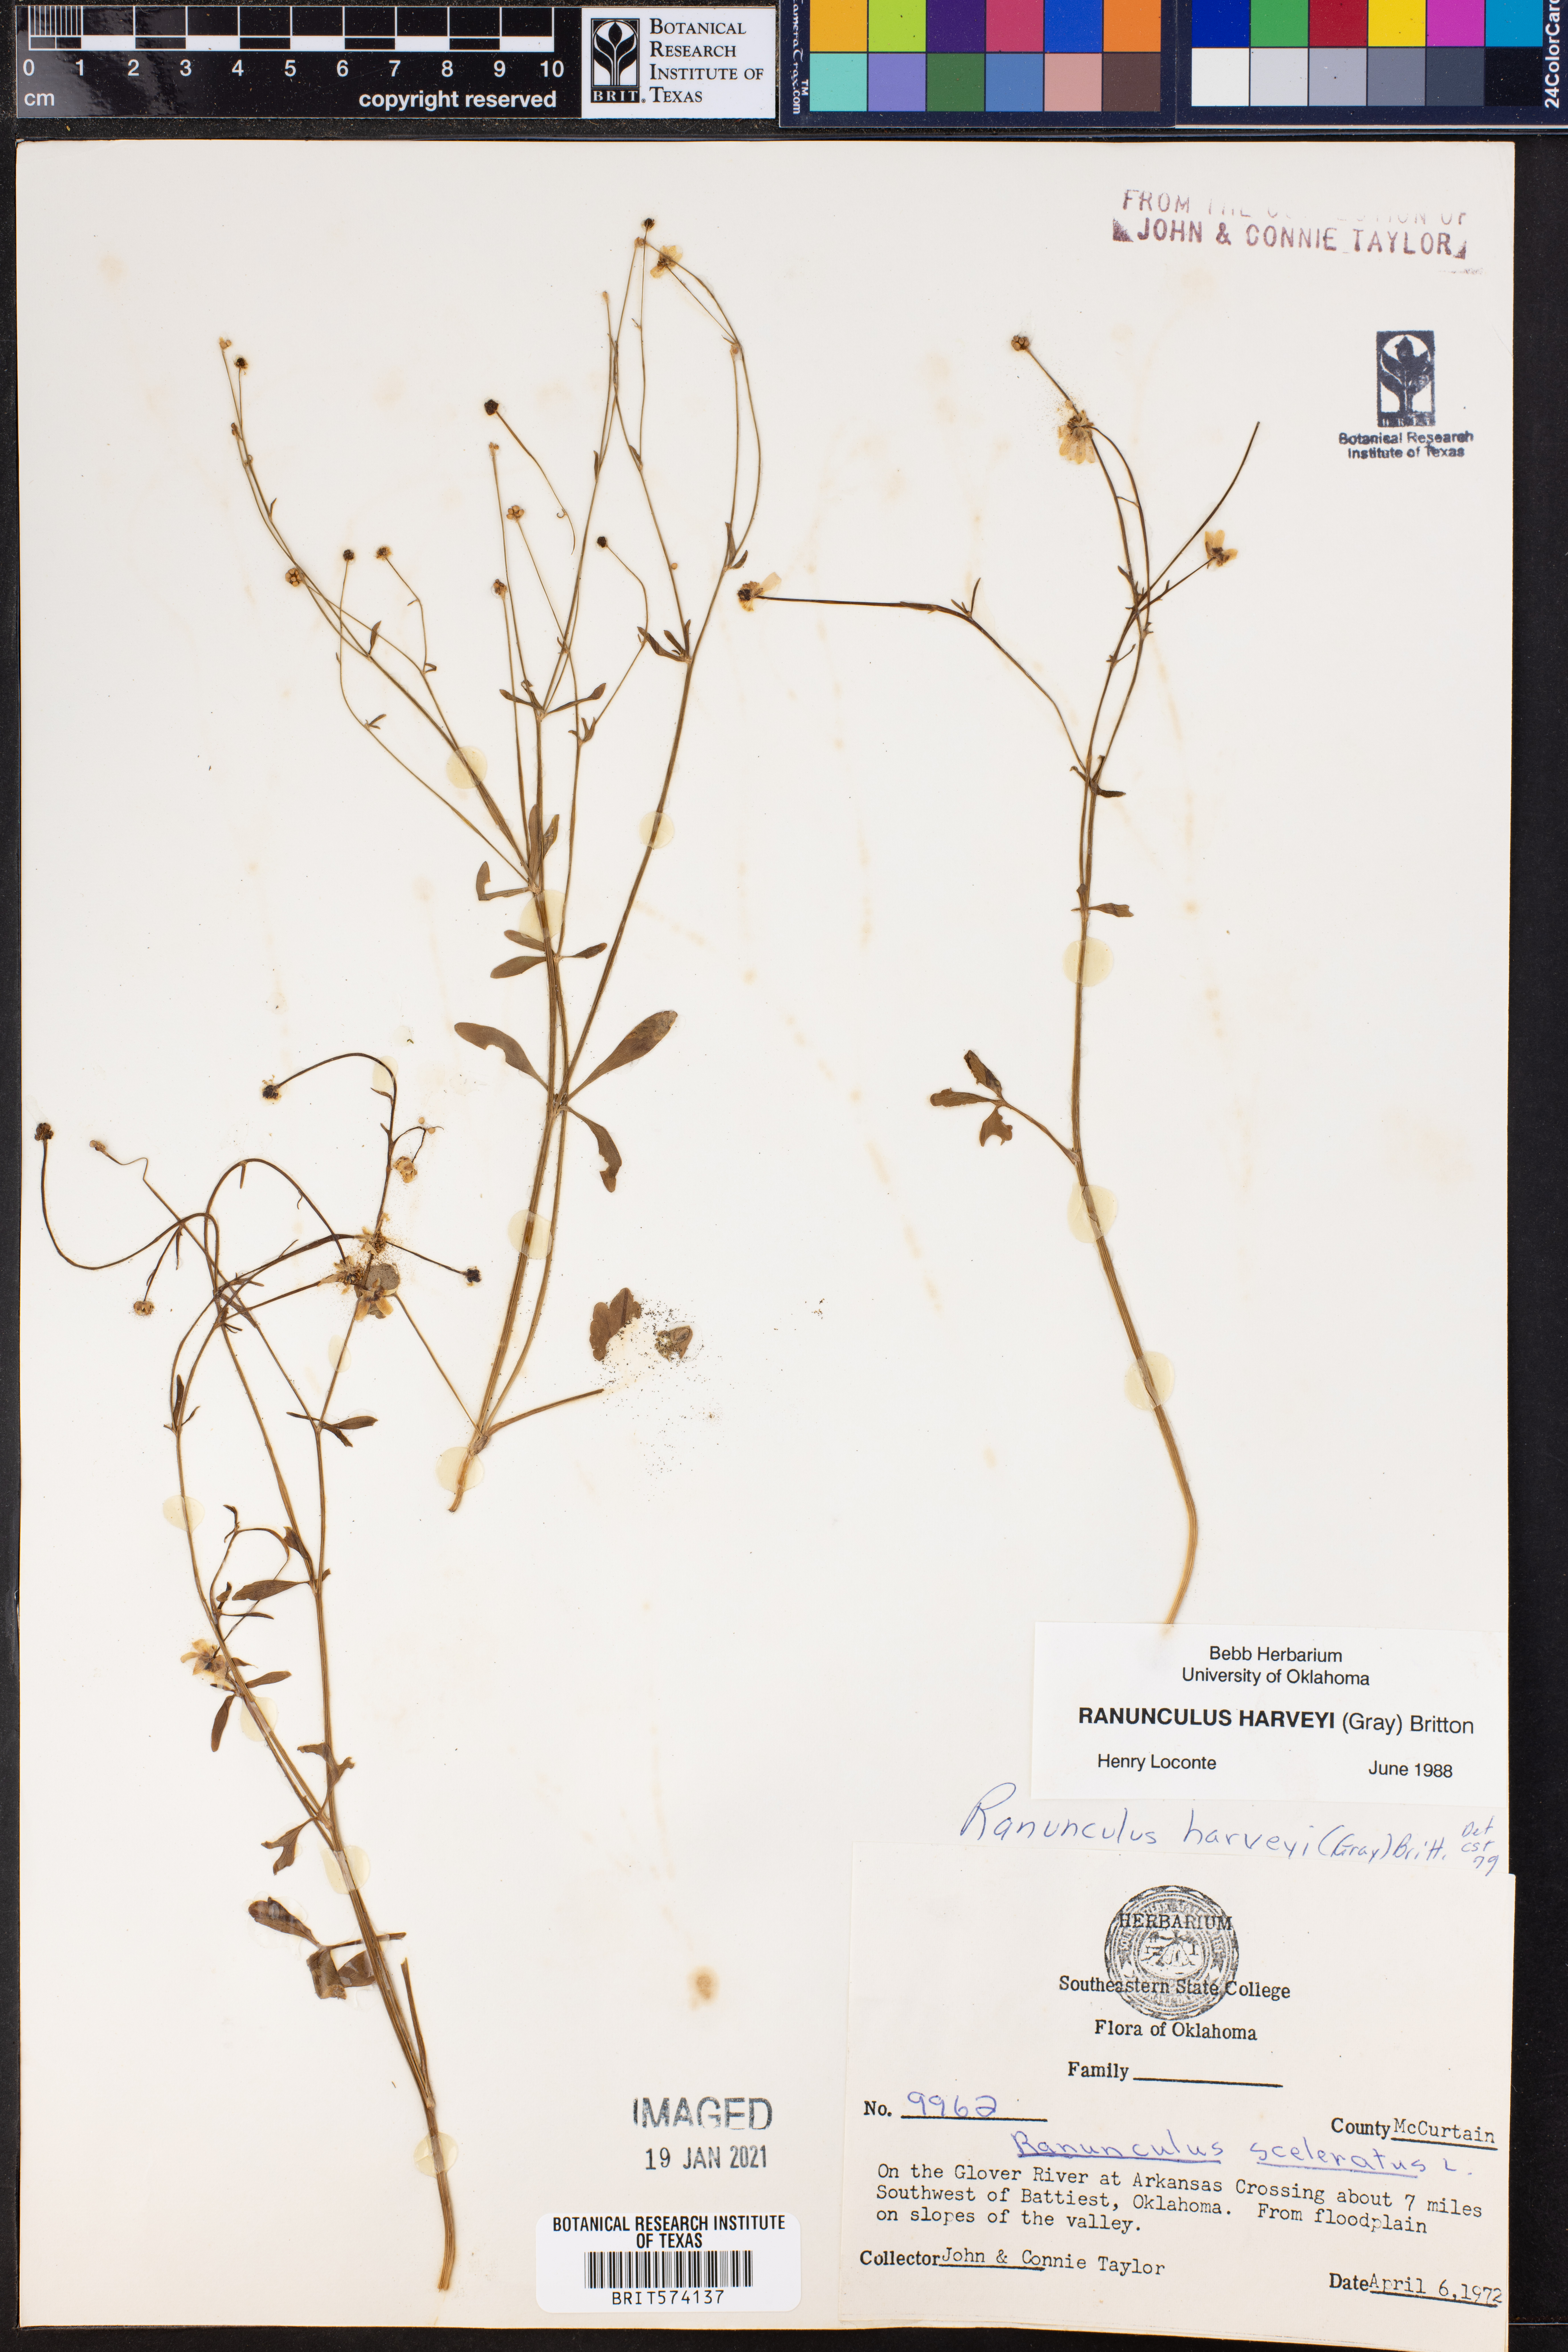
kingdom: Plantae
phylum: Tracheophyta
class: Magnoliopsida
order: Ranunculales
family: Ranunculaceae
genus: Ranunculus
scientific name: Ranunculus harveyi
